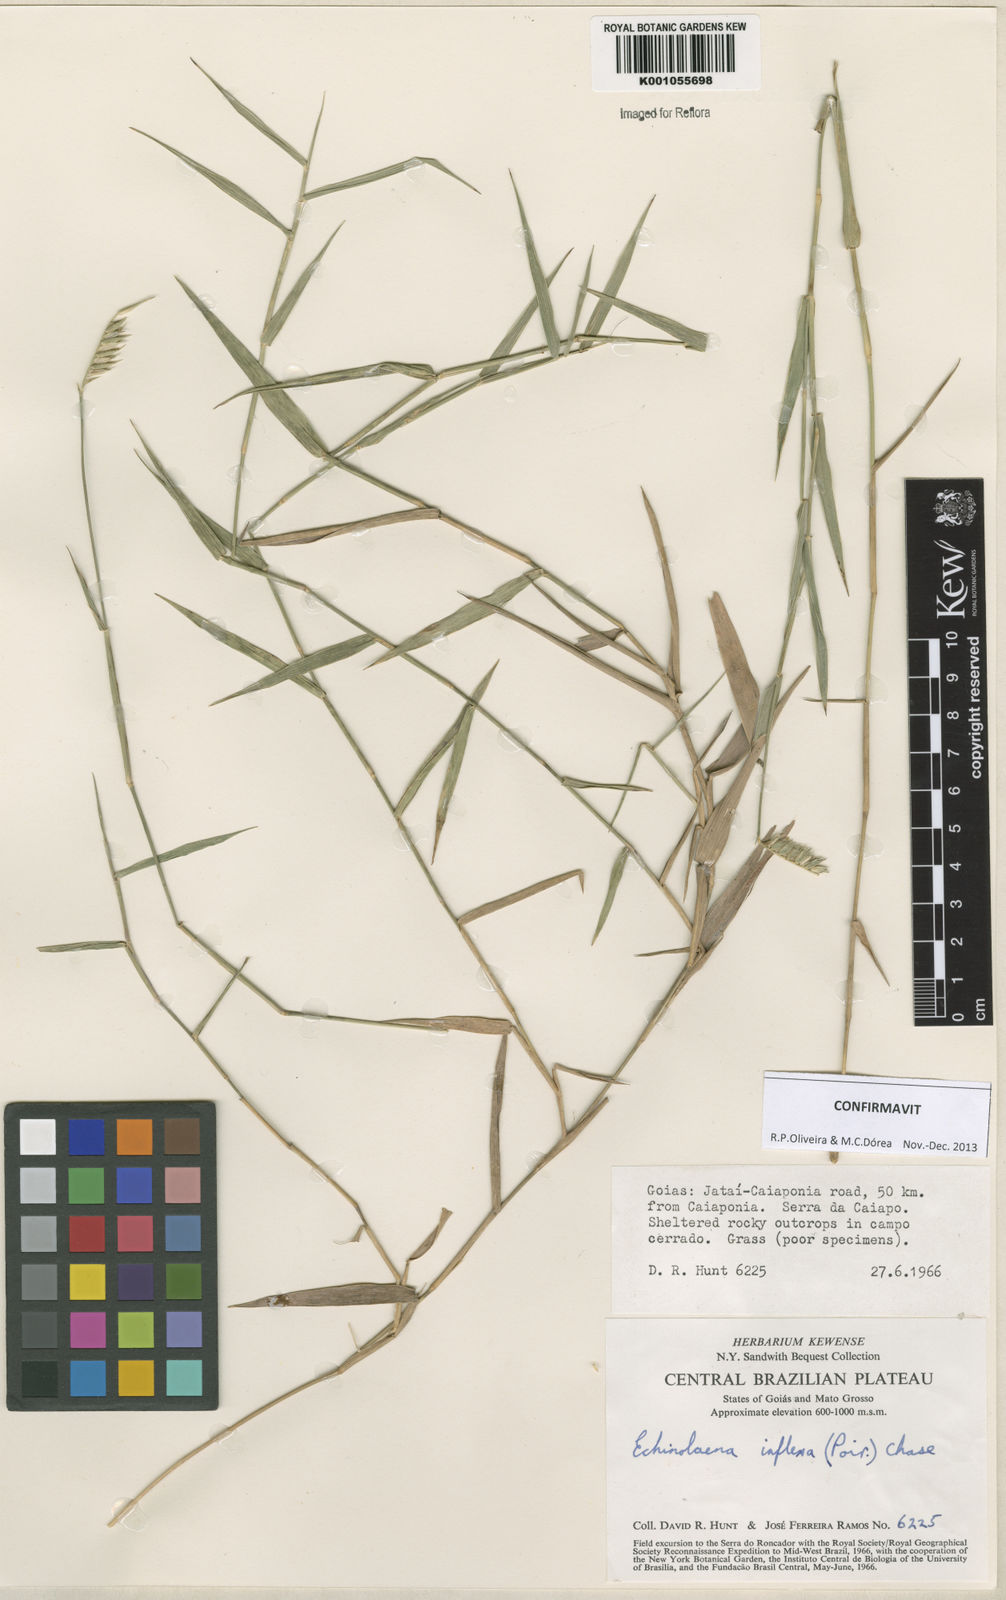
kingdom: Plantae
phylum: Tracheophyta
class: Liliopsida
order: Poales
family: Poaceae
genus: Echinolaena
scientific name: Echinolaena inflexa
